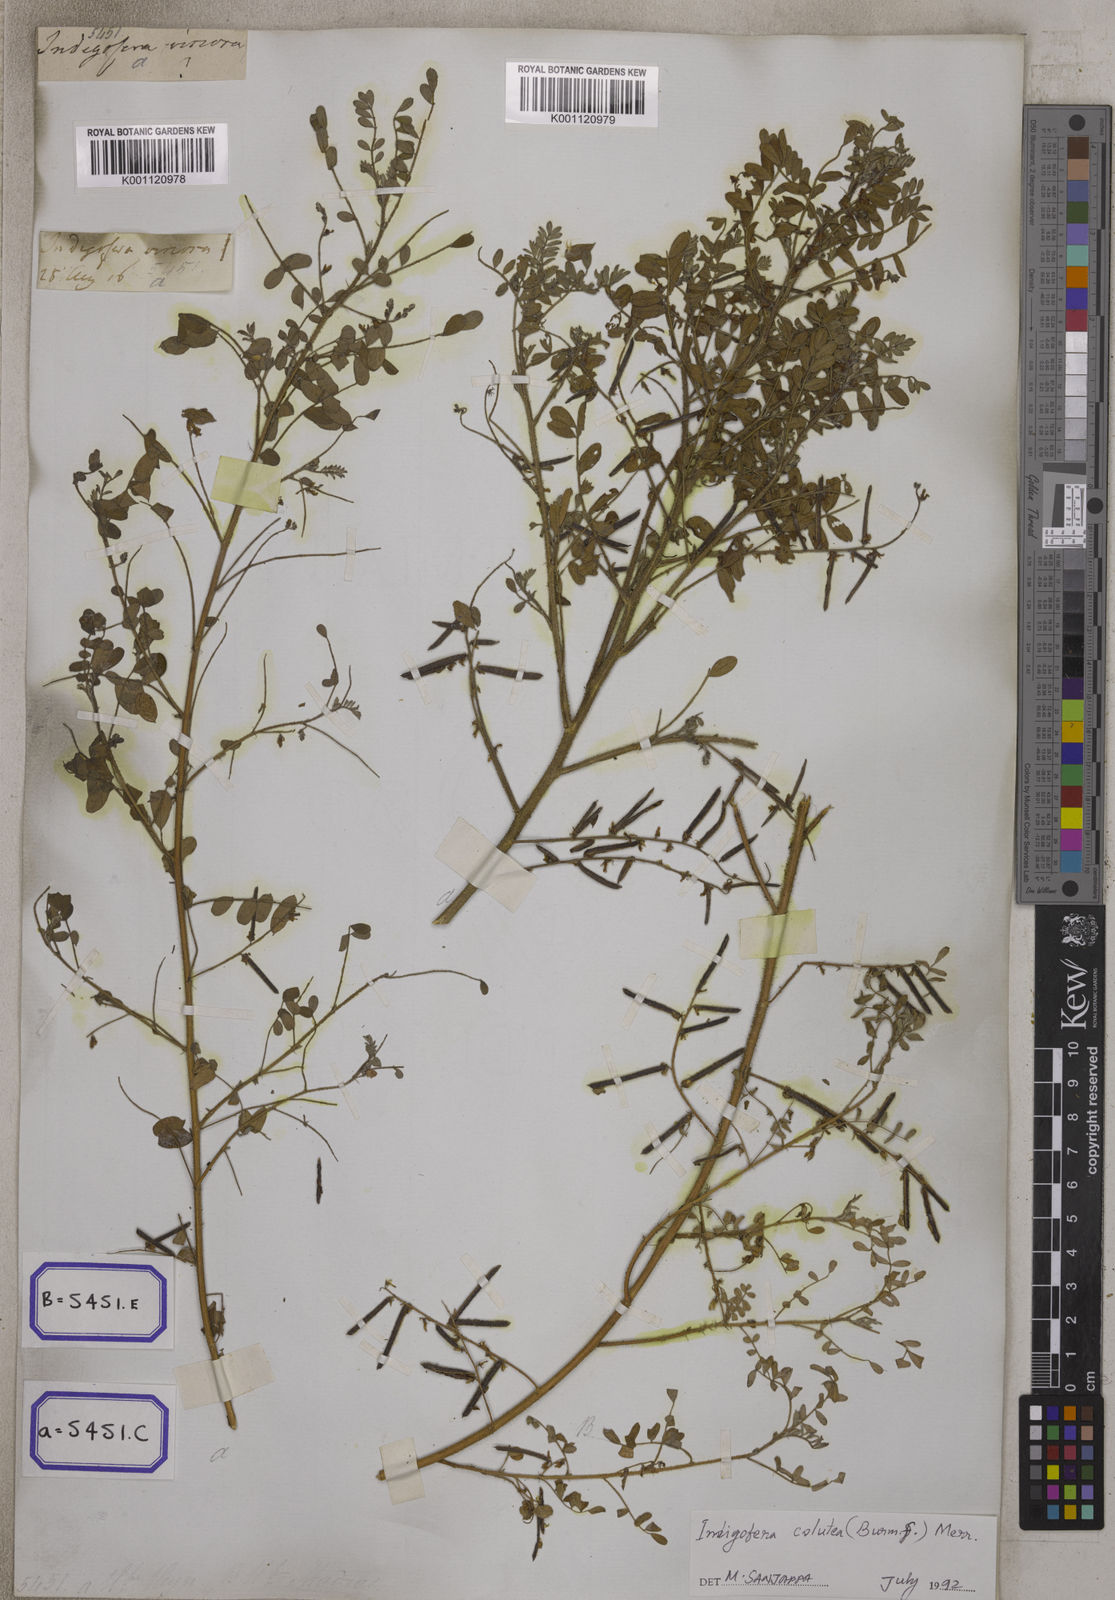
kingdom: Plantae
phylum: Tracheophyta
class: Magnoliopsida
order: Fabales
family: Fabaceae
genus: Indigofera
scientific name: Indigofera colutea
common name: Rusty indigo
